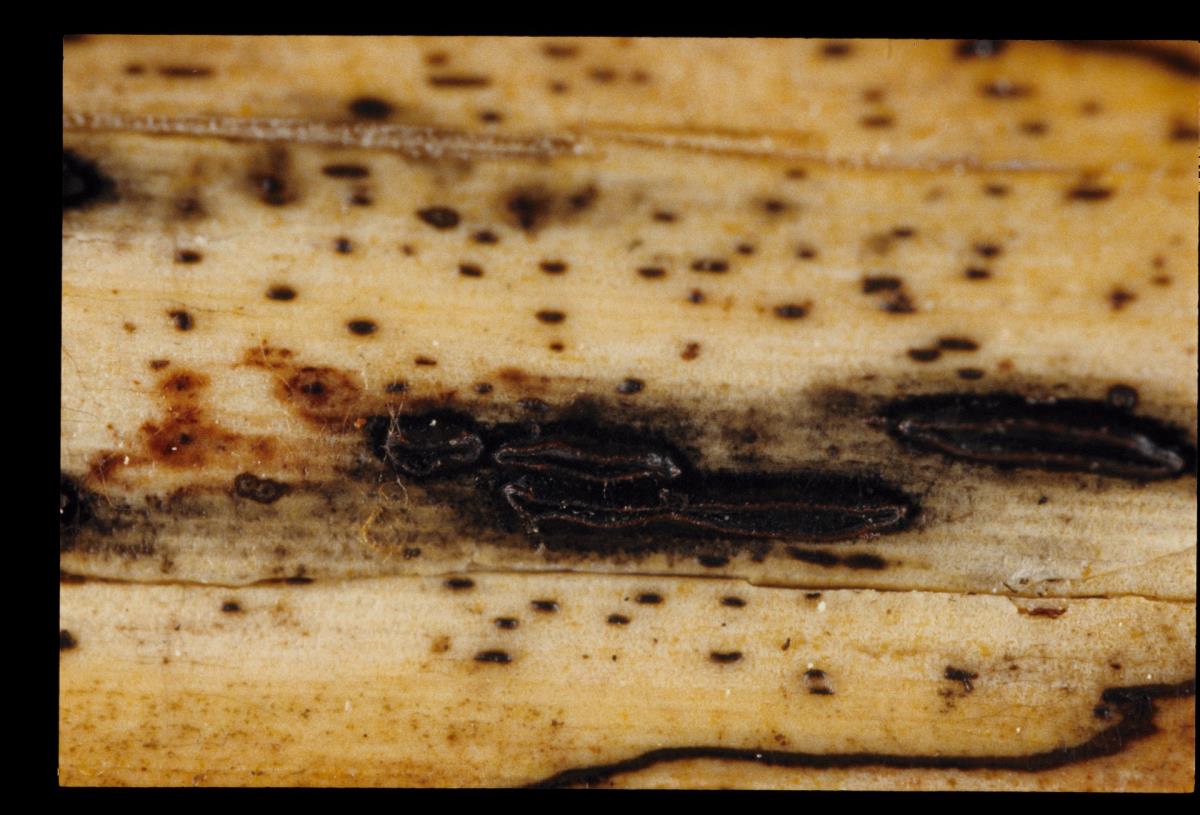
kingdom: Fungi
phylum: Ascomycota
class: Leotiomycetes
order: Rhytismatales
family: Rhytismataceae
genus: Lophodermium
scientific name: Lophodermium nigrofactum
